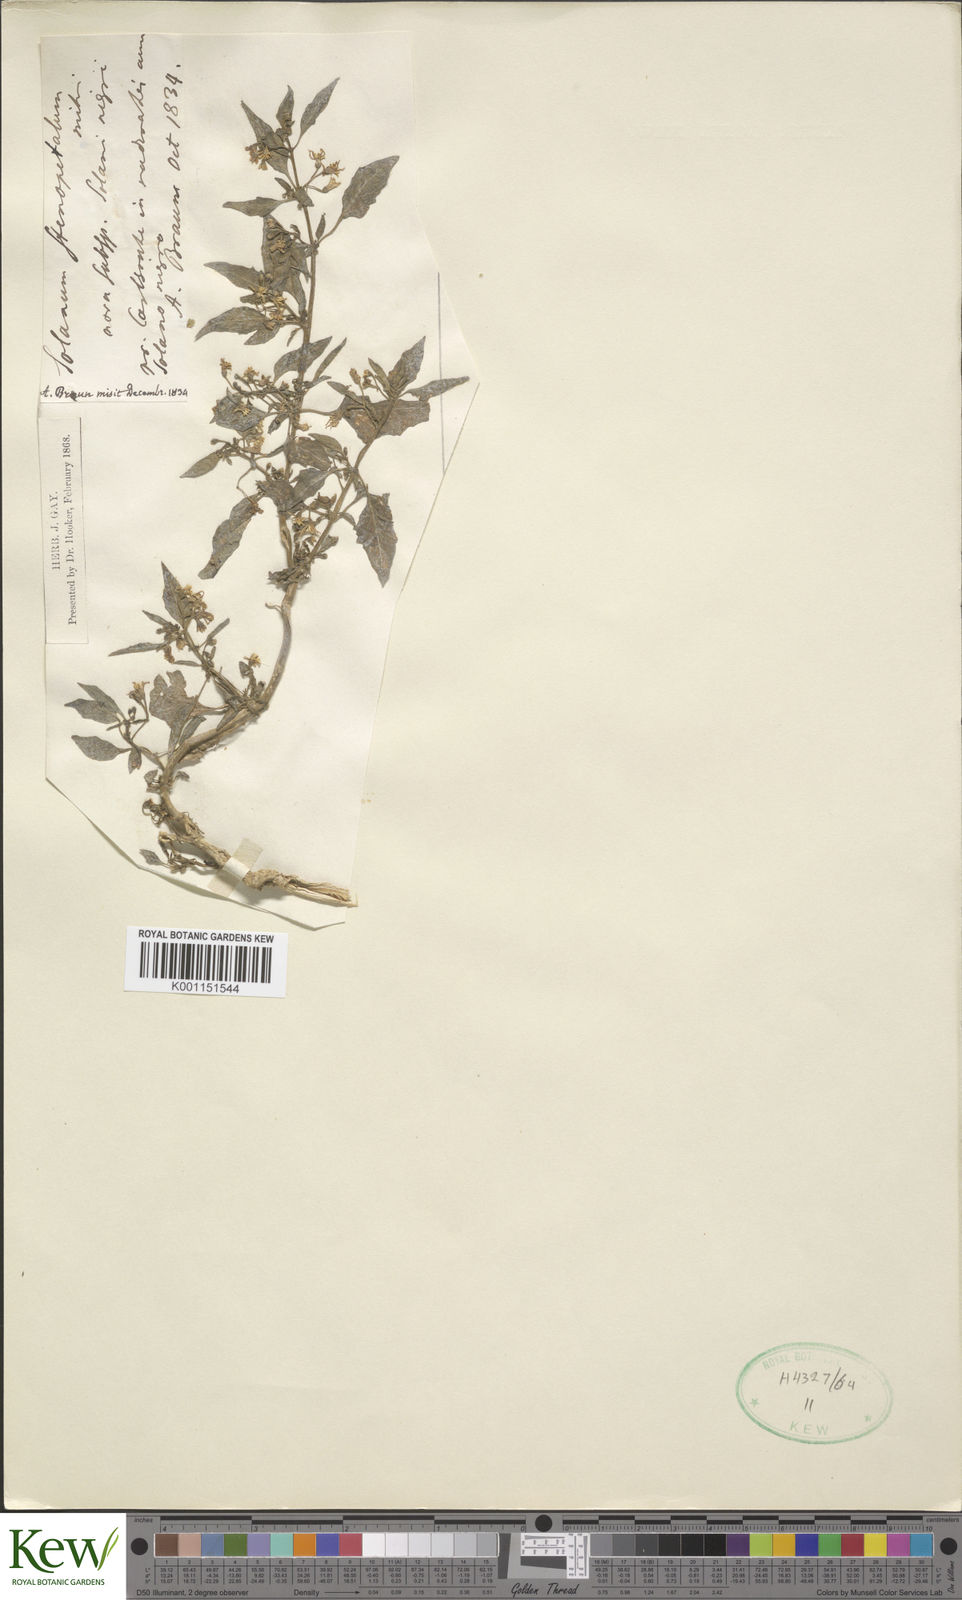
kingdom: Plantae
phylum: Tracheophyta
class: Magnoliopsida
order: Solanales
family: Solanaceae
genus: Solanum
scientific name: Solanum americanum
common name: American black nightshade
